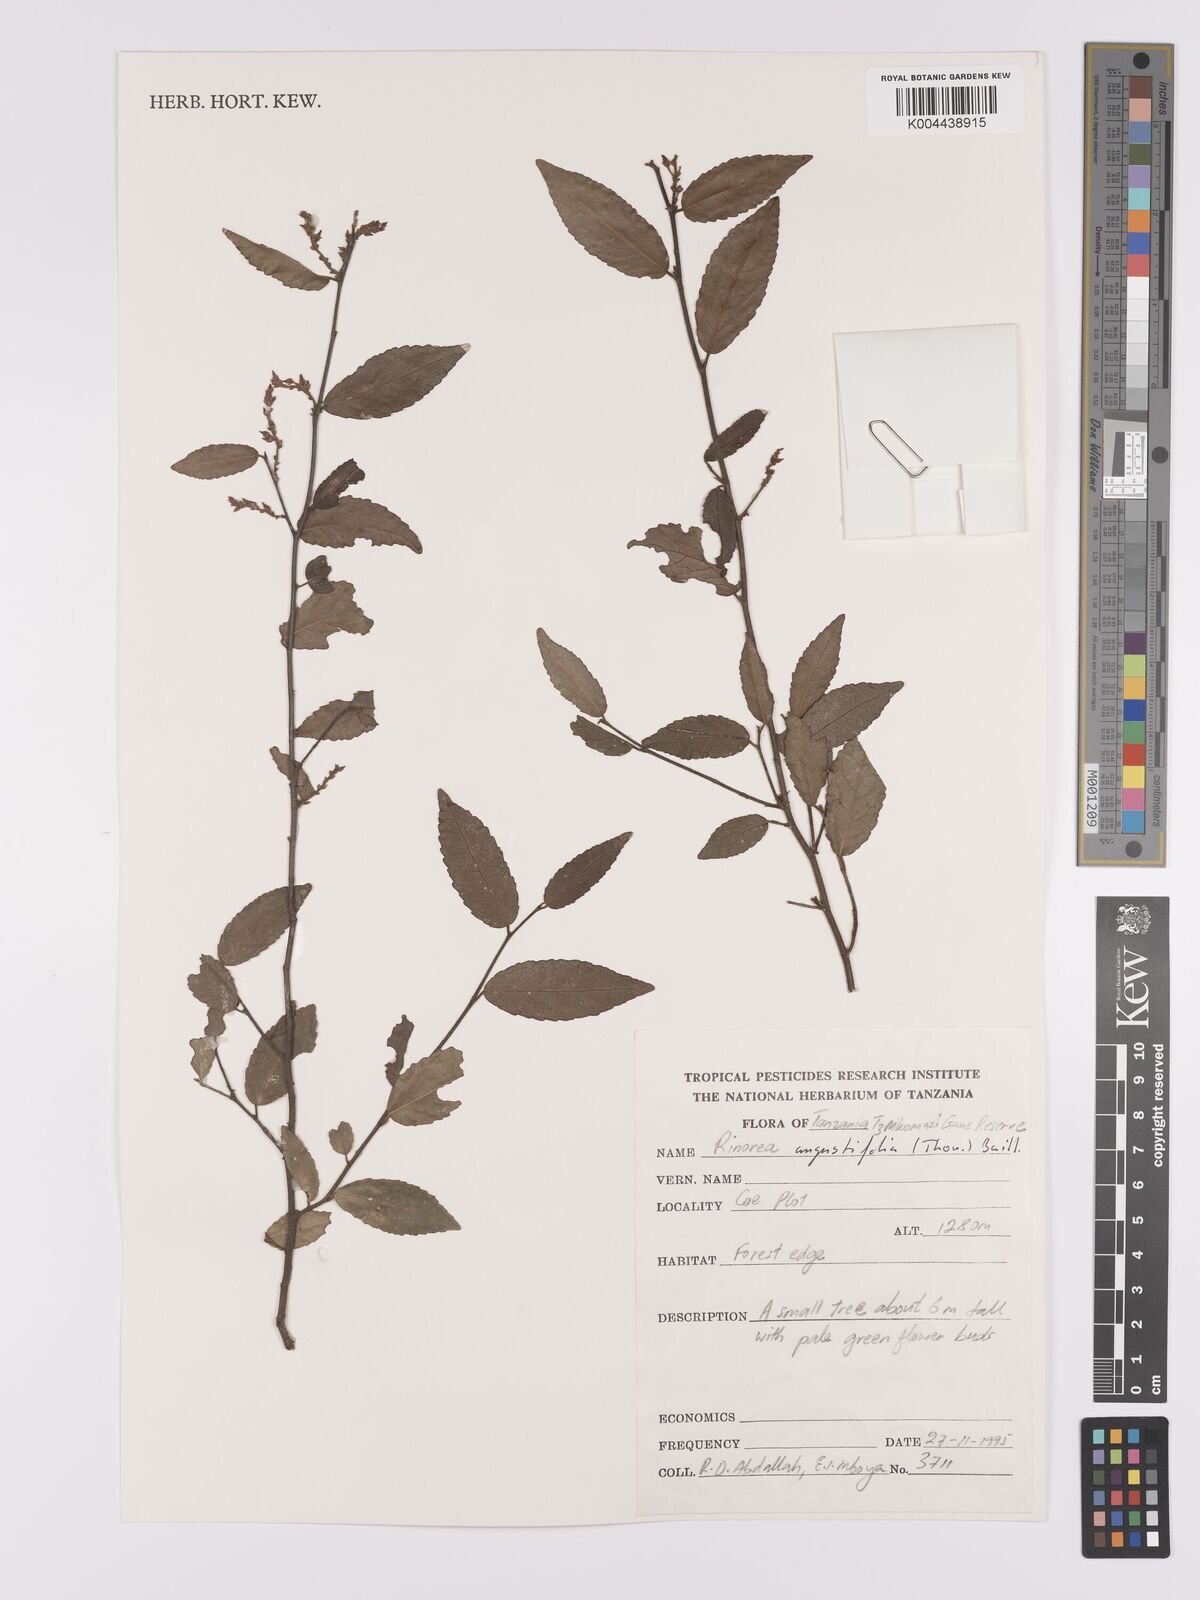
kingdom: Plantae
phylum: Tracheophyta
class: Magnoliopsida
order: Malpighiales
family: Violaceae
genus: Rinorea
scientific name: Rinorea angustifolia
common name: White violet-bush
